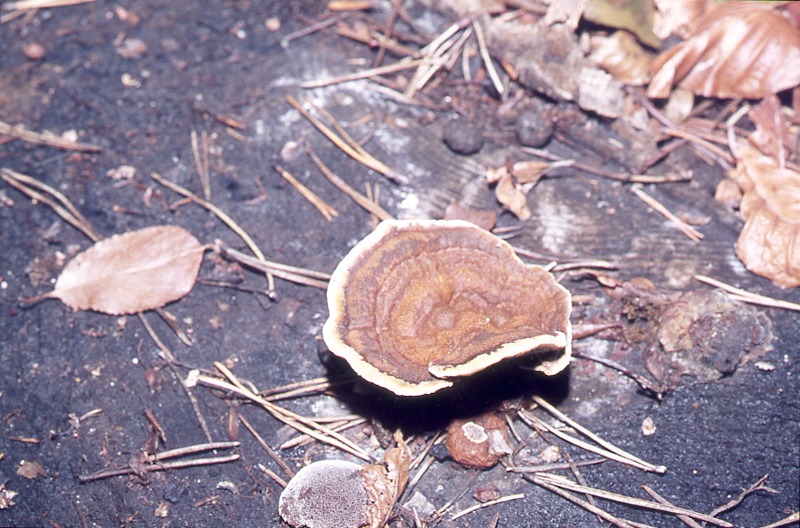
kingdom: Fungi
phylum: Basidiomycota
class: Agaricomycetes
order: Hymenochaetales
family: Hymenochaetaceae
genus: Coltricia
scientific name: Coltricia perennis
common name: Tiger's eye
